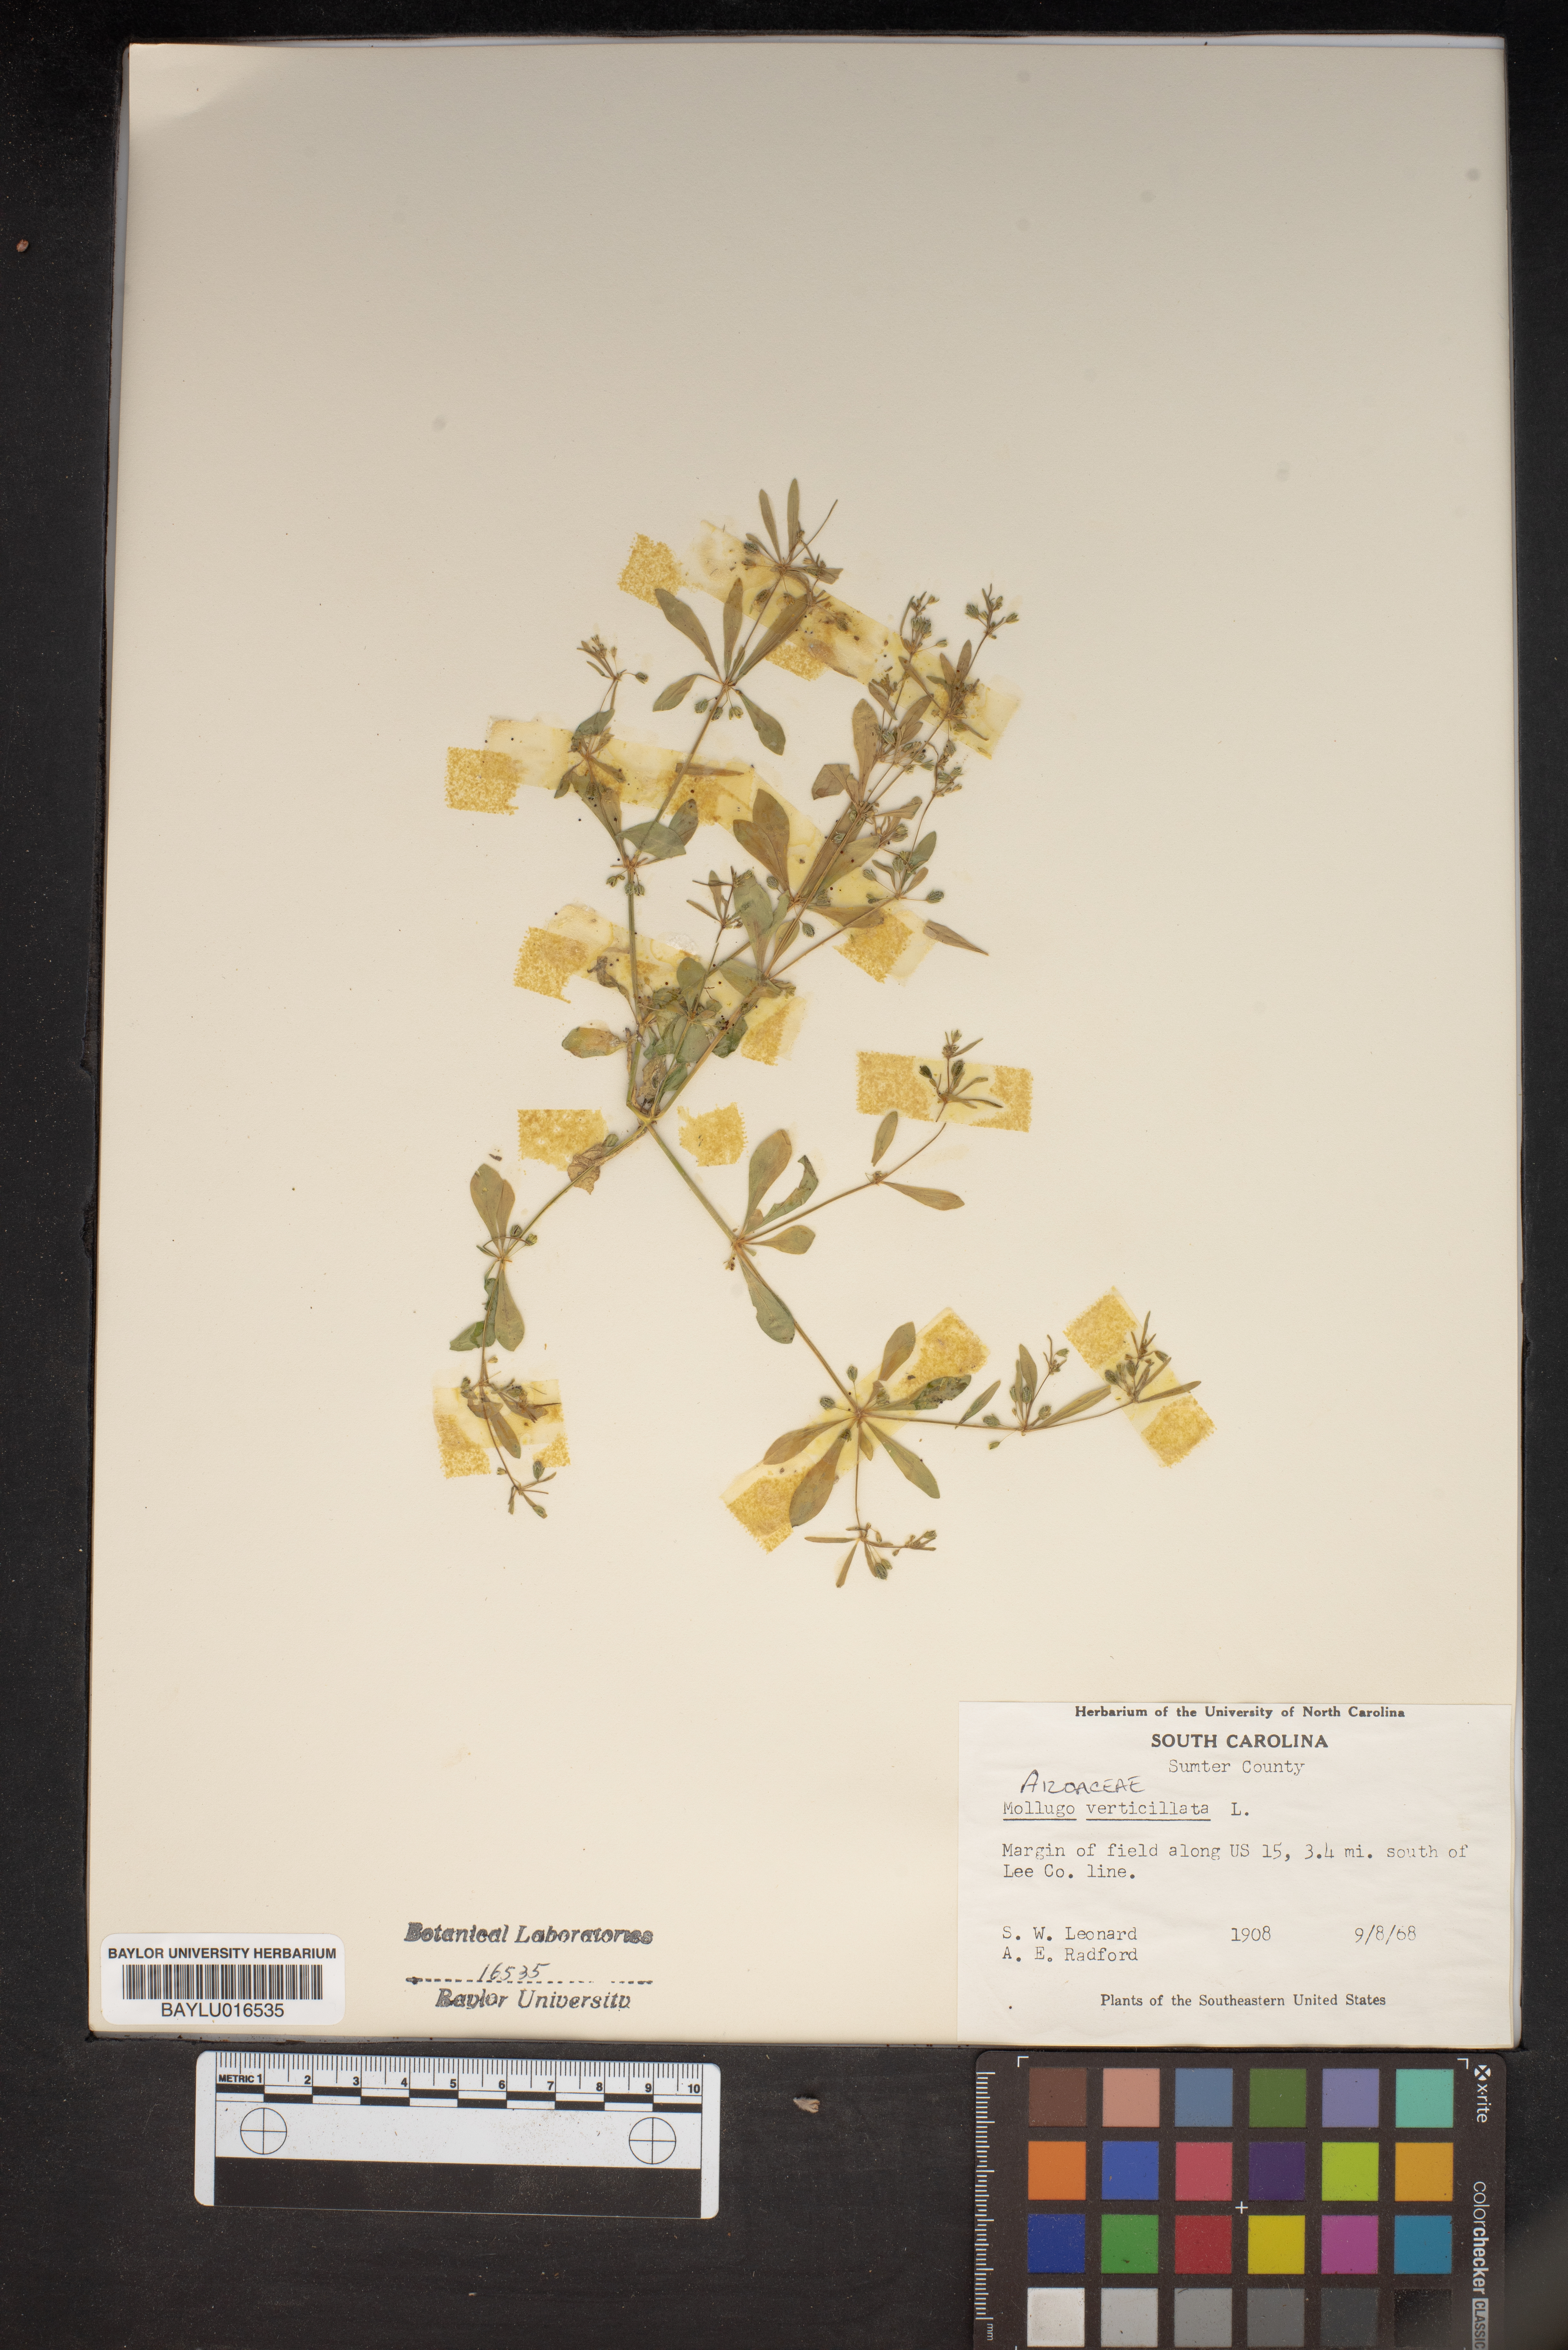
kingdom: Plantae
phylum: Tracheophyta
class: Magnoliopsida
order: Caryophyllales
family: Molluginaceae
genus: Mollugo
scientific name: Mollugo verticillata
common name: Green carpetweed
